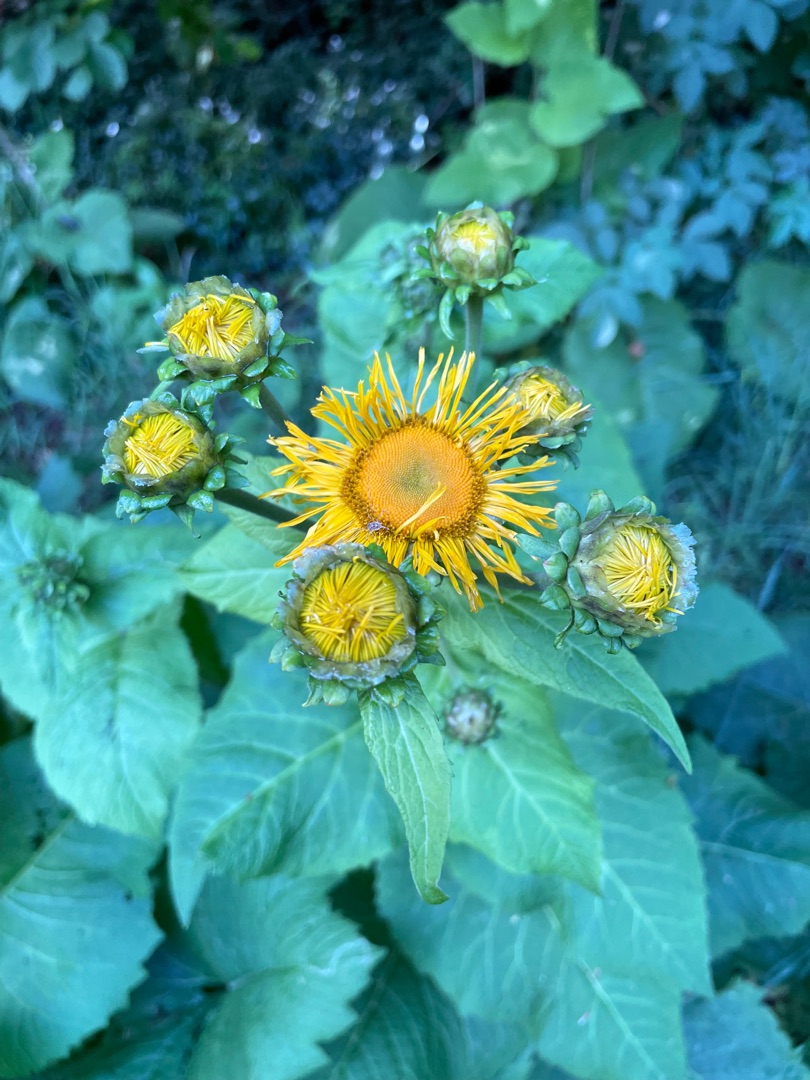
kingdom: Plantae
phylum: Tracheophyta
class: Magnoliopsida
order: Asterales
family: Asteraceae
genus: Telekia
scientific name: Telekia speciosa
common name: Tusindstråle
